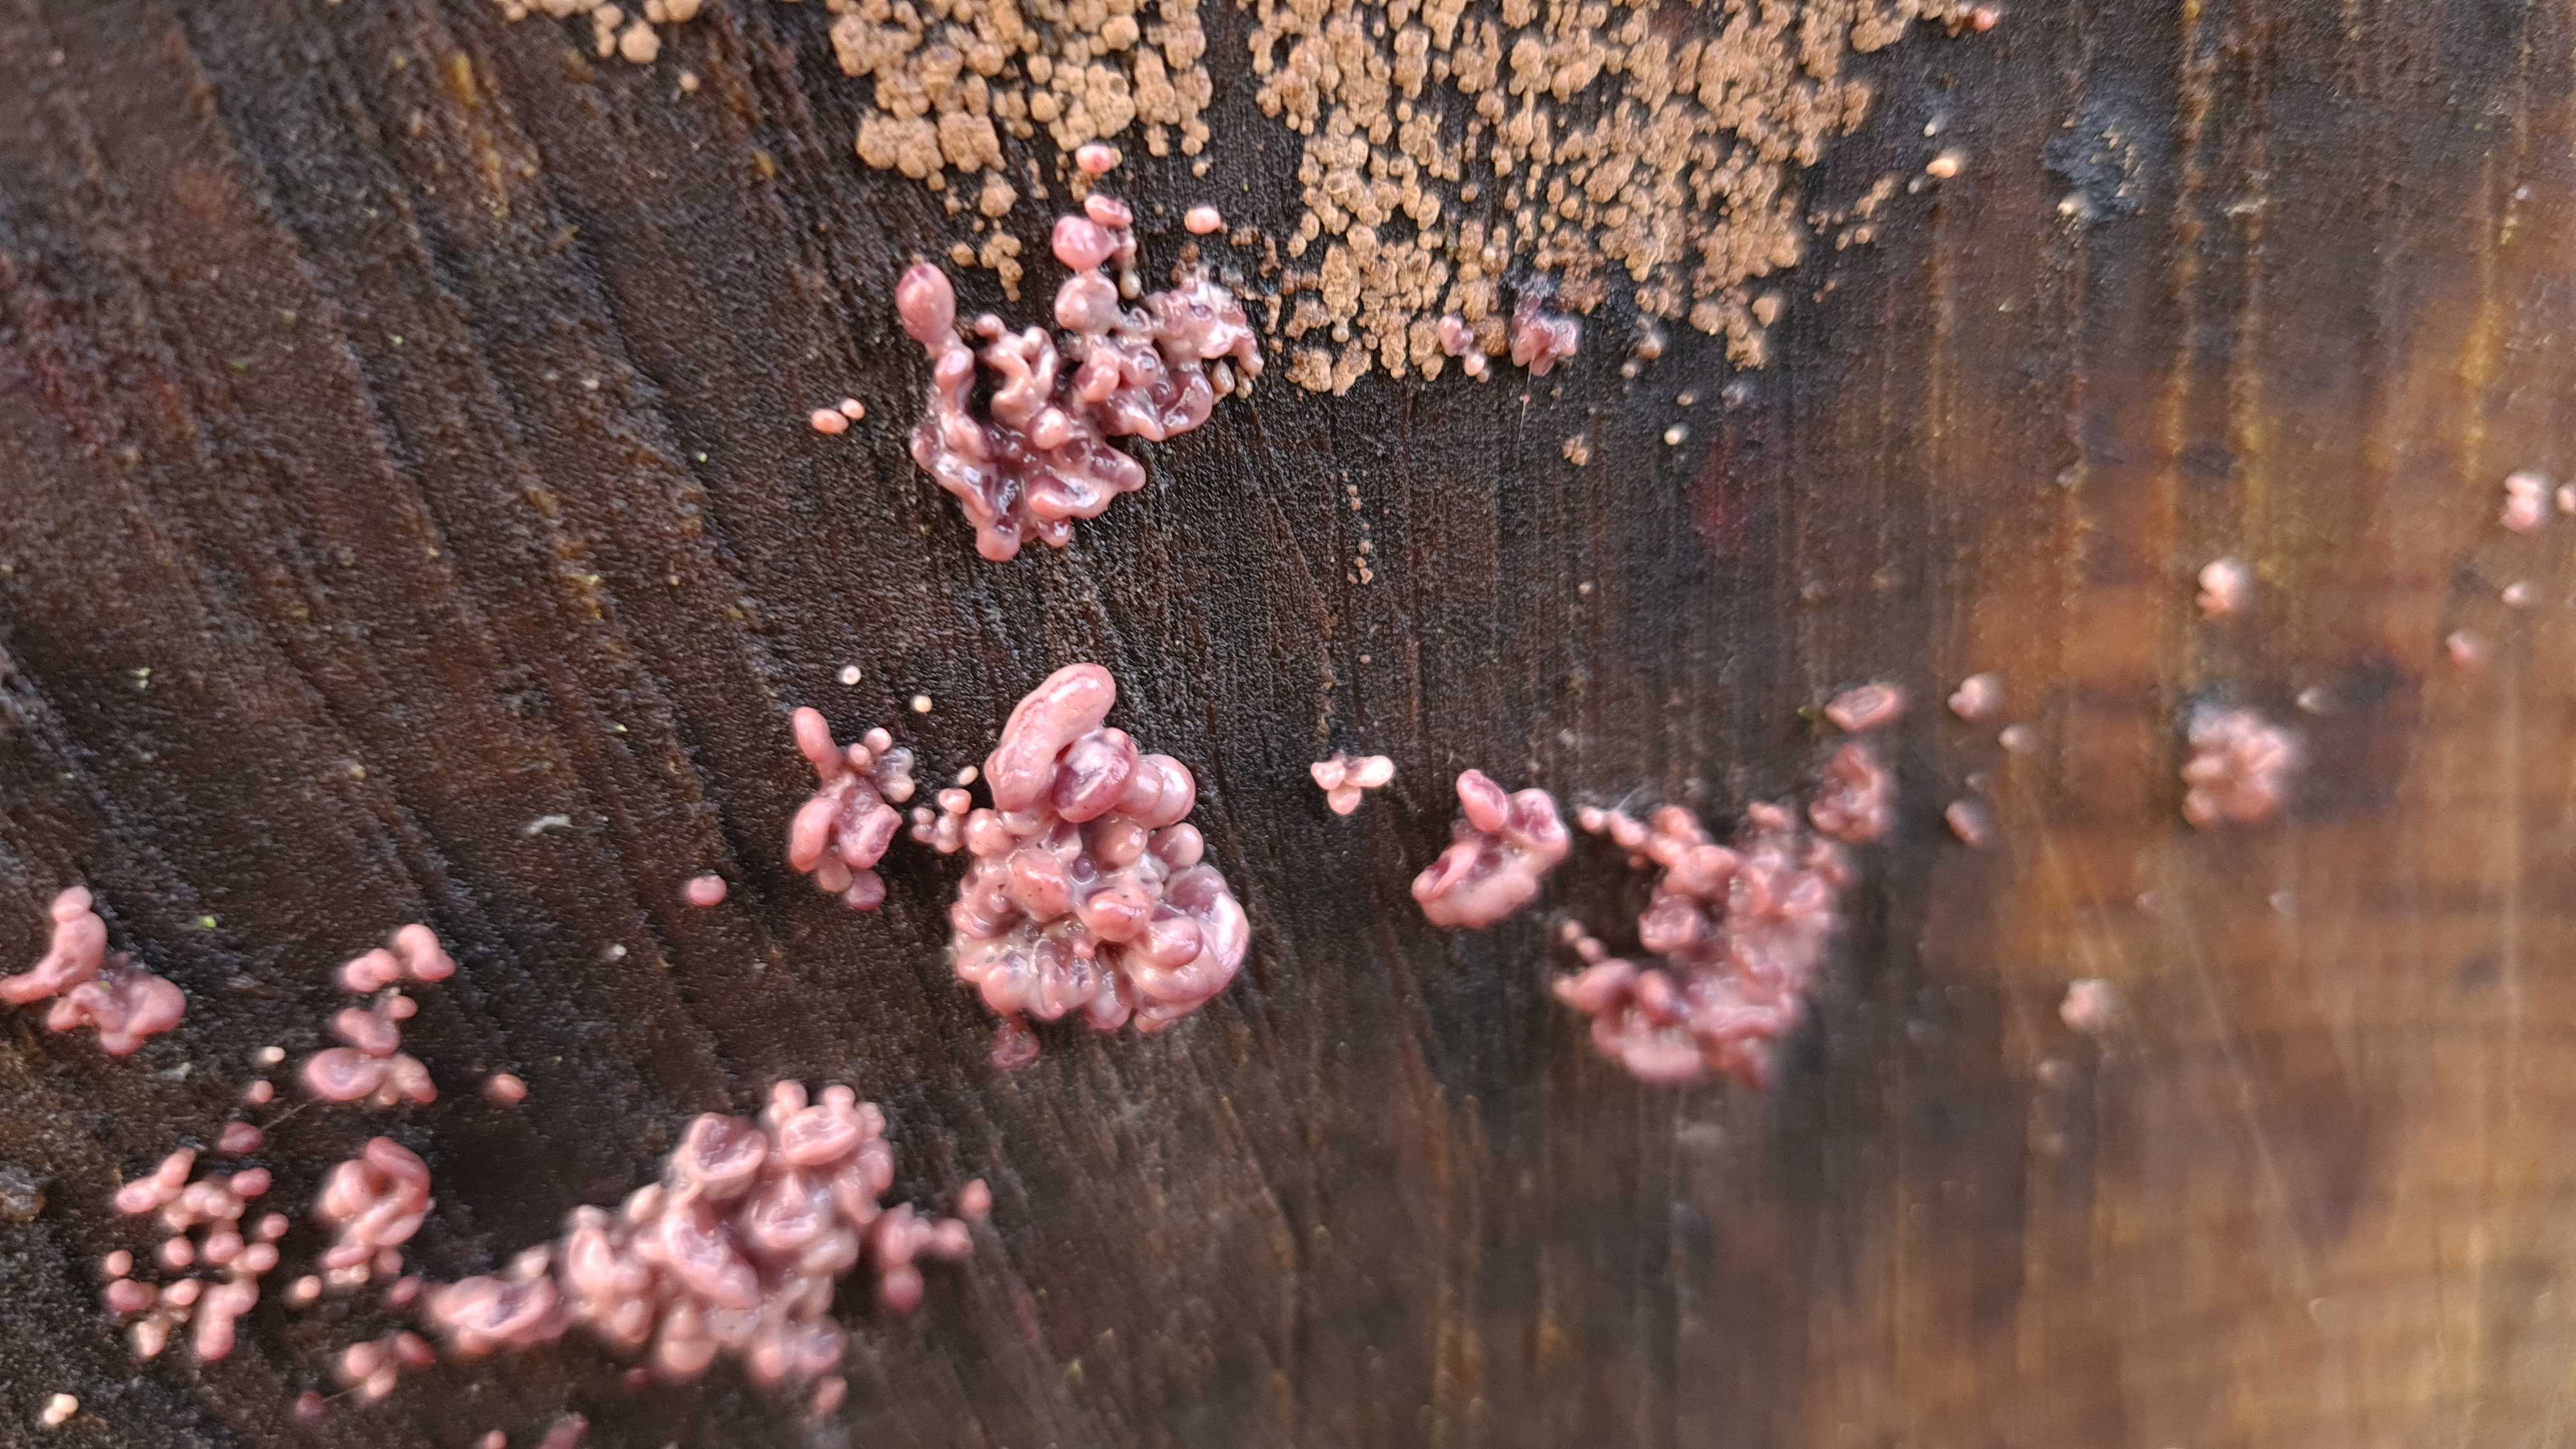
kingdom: Fungi
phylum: Ascomycota
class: Leotiomycetes
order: Helotiales
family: Gelatinodiscaceae
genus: Ascocoryne
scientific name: Ascocoryne sarcoides
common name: rødlilla sejskive
